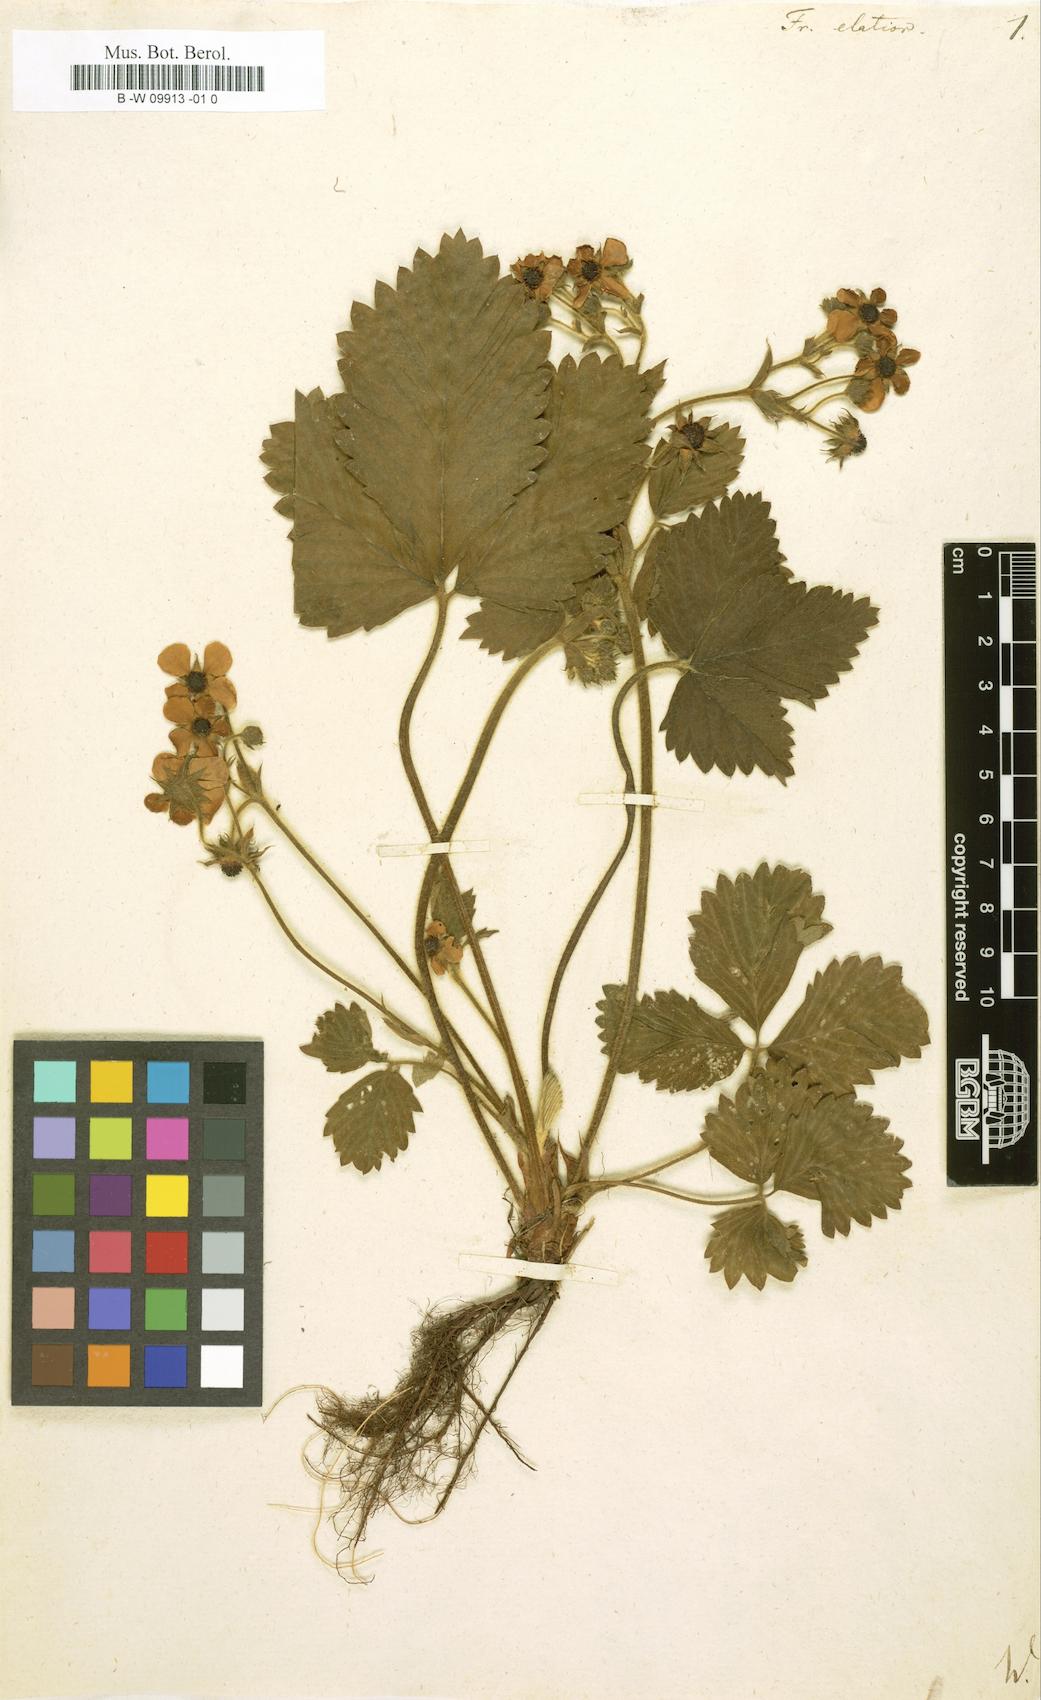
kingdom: Plantae
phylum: Tracheophyta
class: Magnoliopsida
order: Rosales
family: Rosaceae
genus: Fragaria
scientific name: Fragaria
